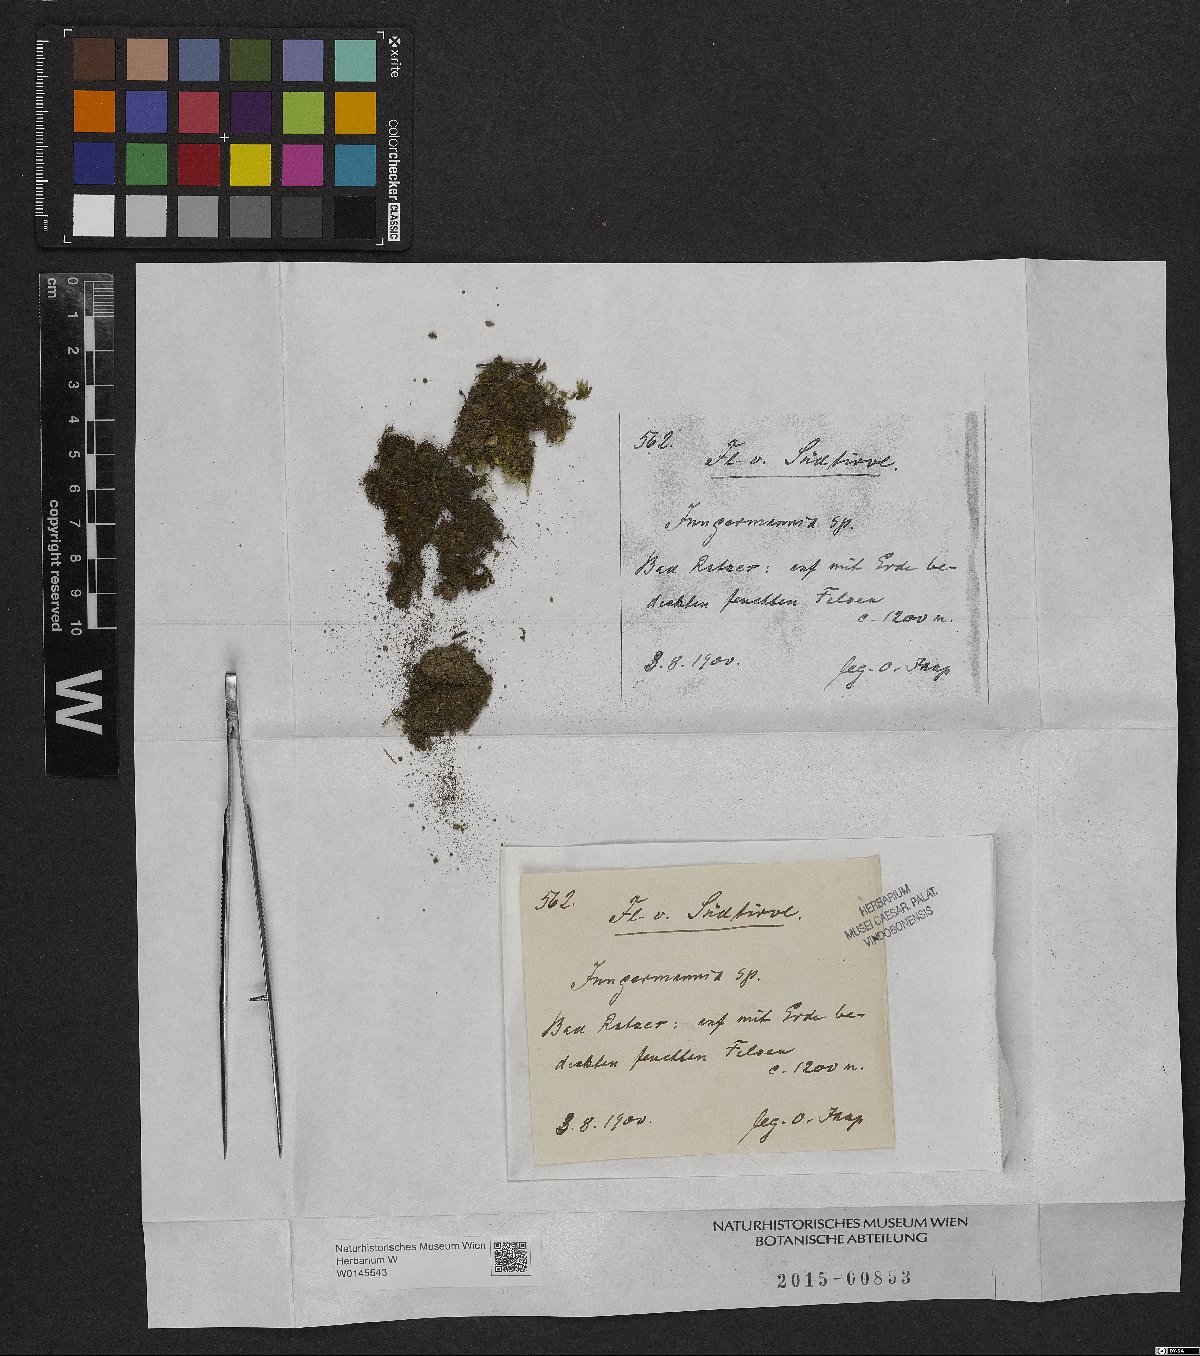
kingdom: Plantae
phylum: Marchantiophyta
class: Jungermanniopsida
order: Jungermanniales
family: Jungermanniaceae
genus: Jungermannia
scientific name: Jungermannia
